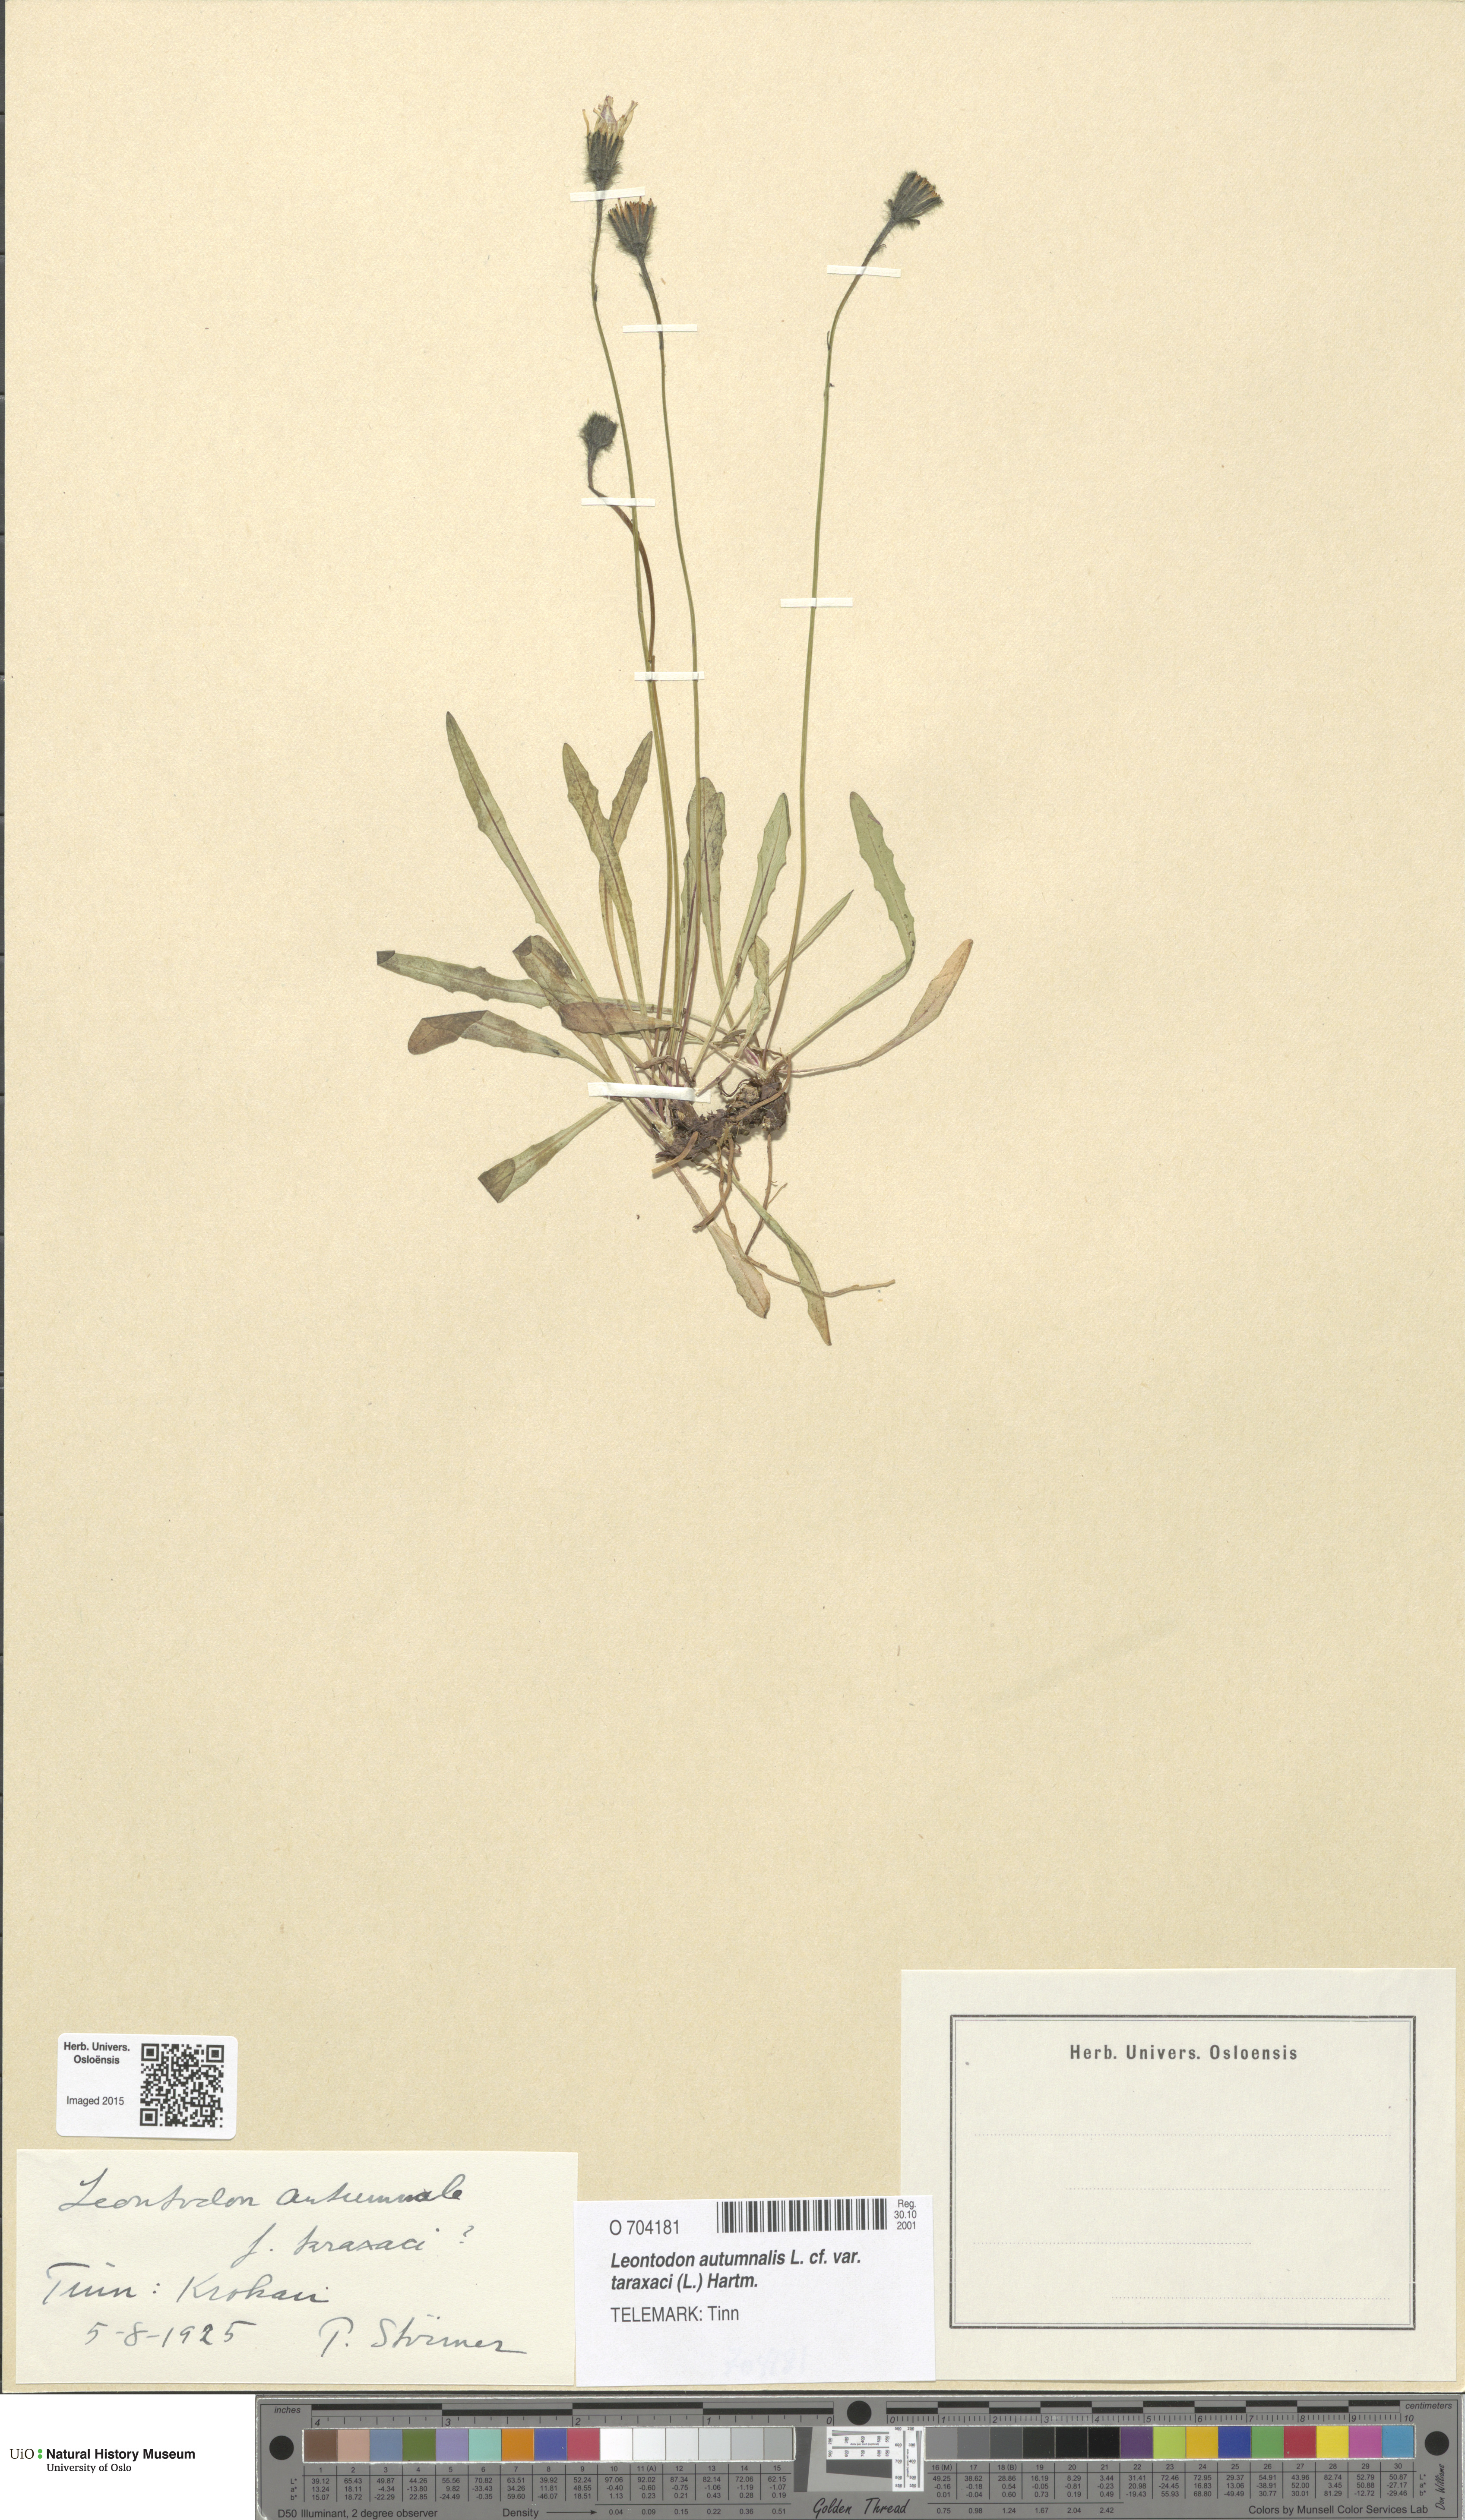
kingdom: Plantae
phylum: Tracheophyta
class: Magnoliopsida
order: Asterales
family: Asteraceae
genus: Scorzoneroides
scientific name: Scorzoneroides autumnalis
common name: Autumn hawkbit
